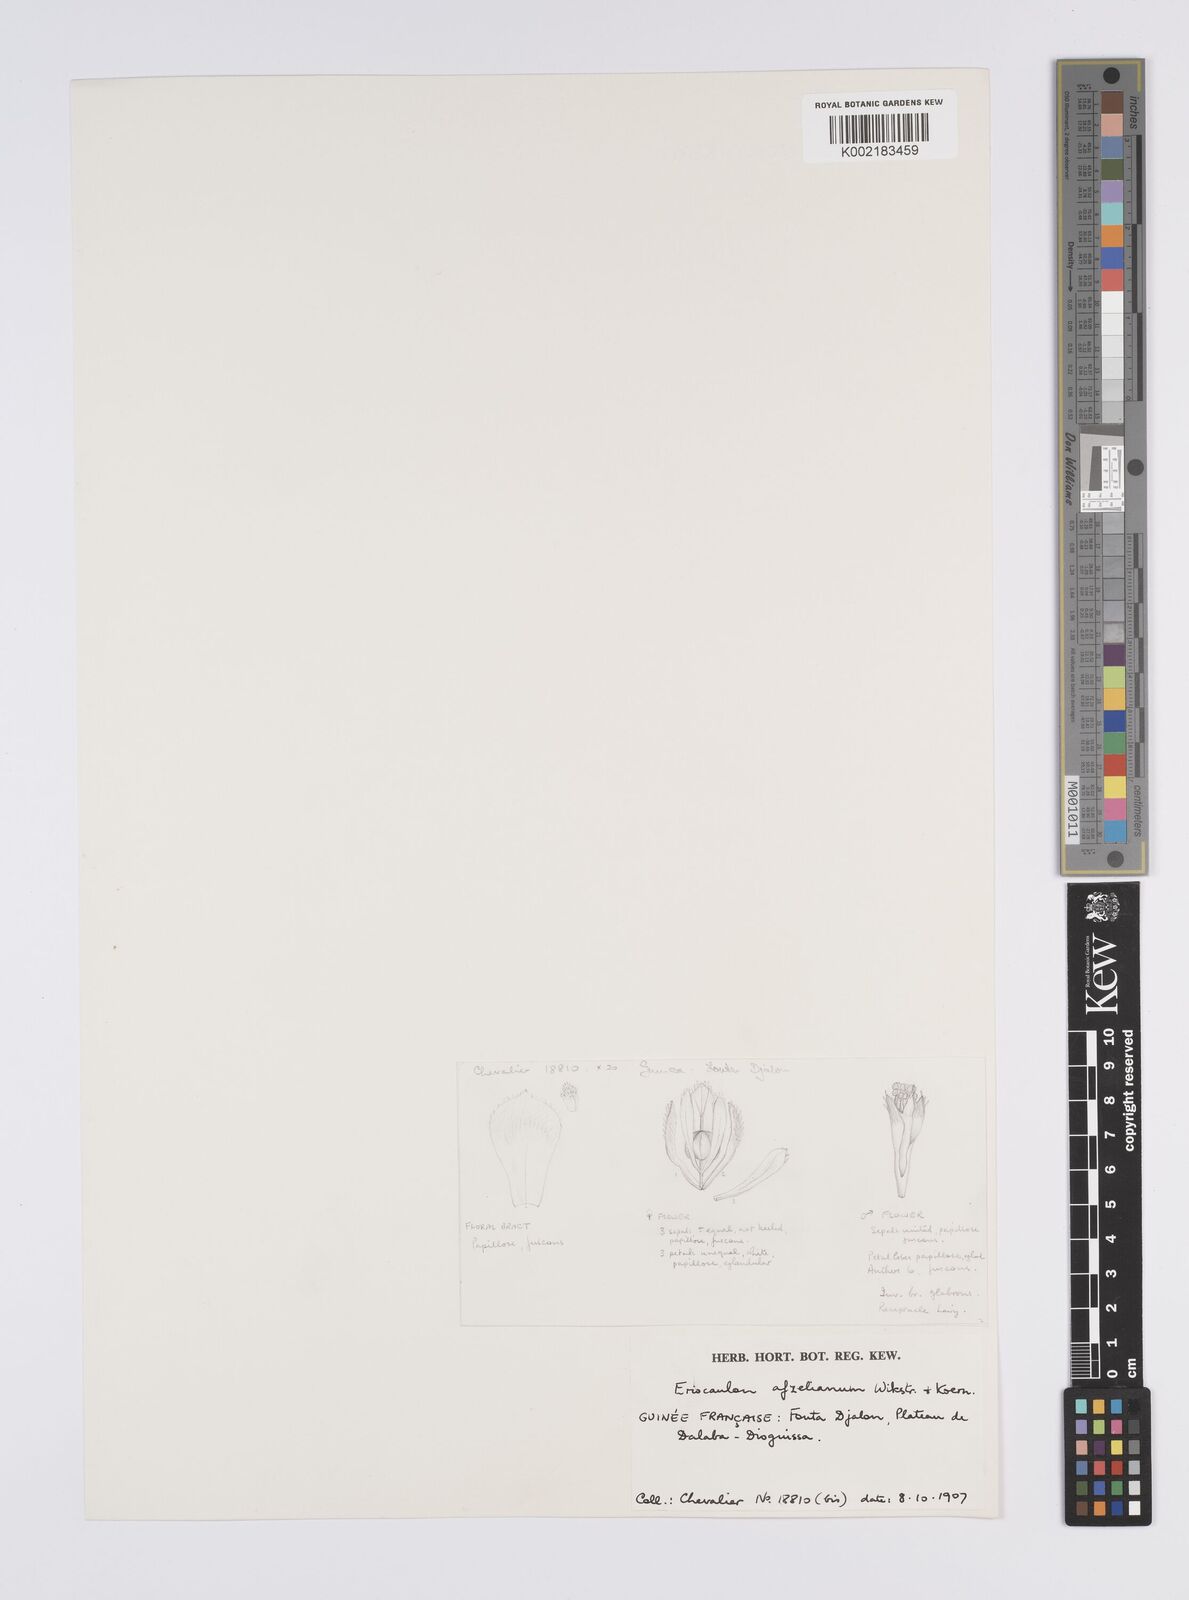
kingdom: Plantae
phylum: Tracheophyta
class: Liliopsida
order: Poales
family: Eriocaulaceae
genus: Eriocaulon
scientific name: Eriocaulon afzelianum
